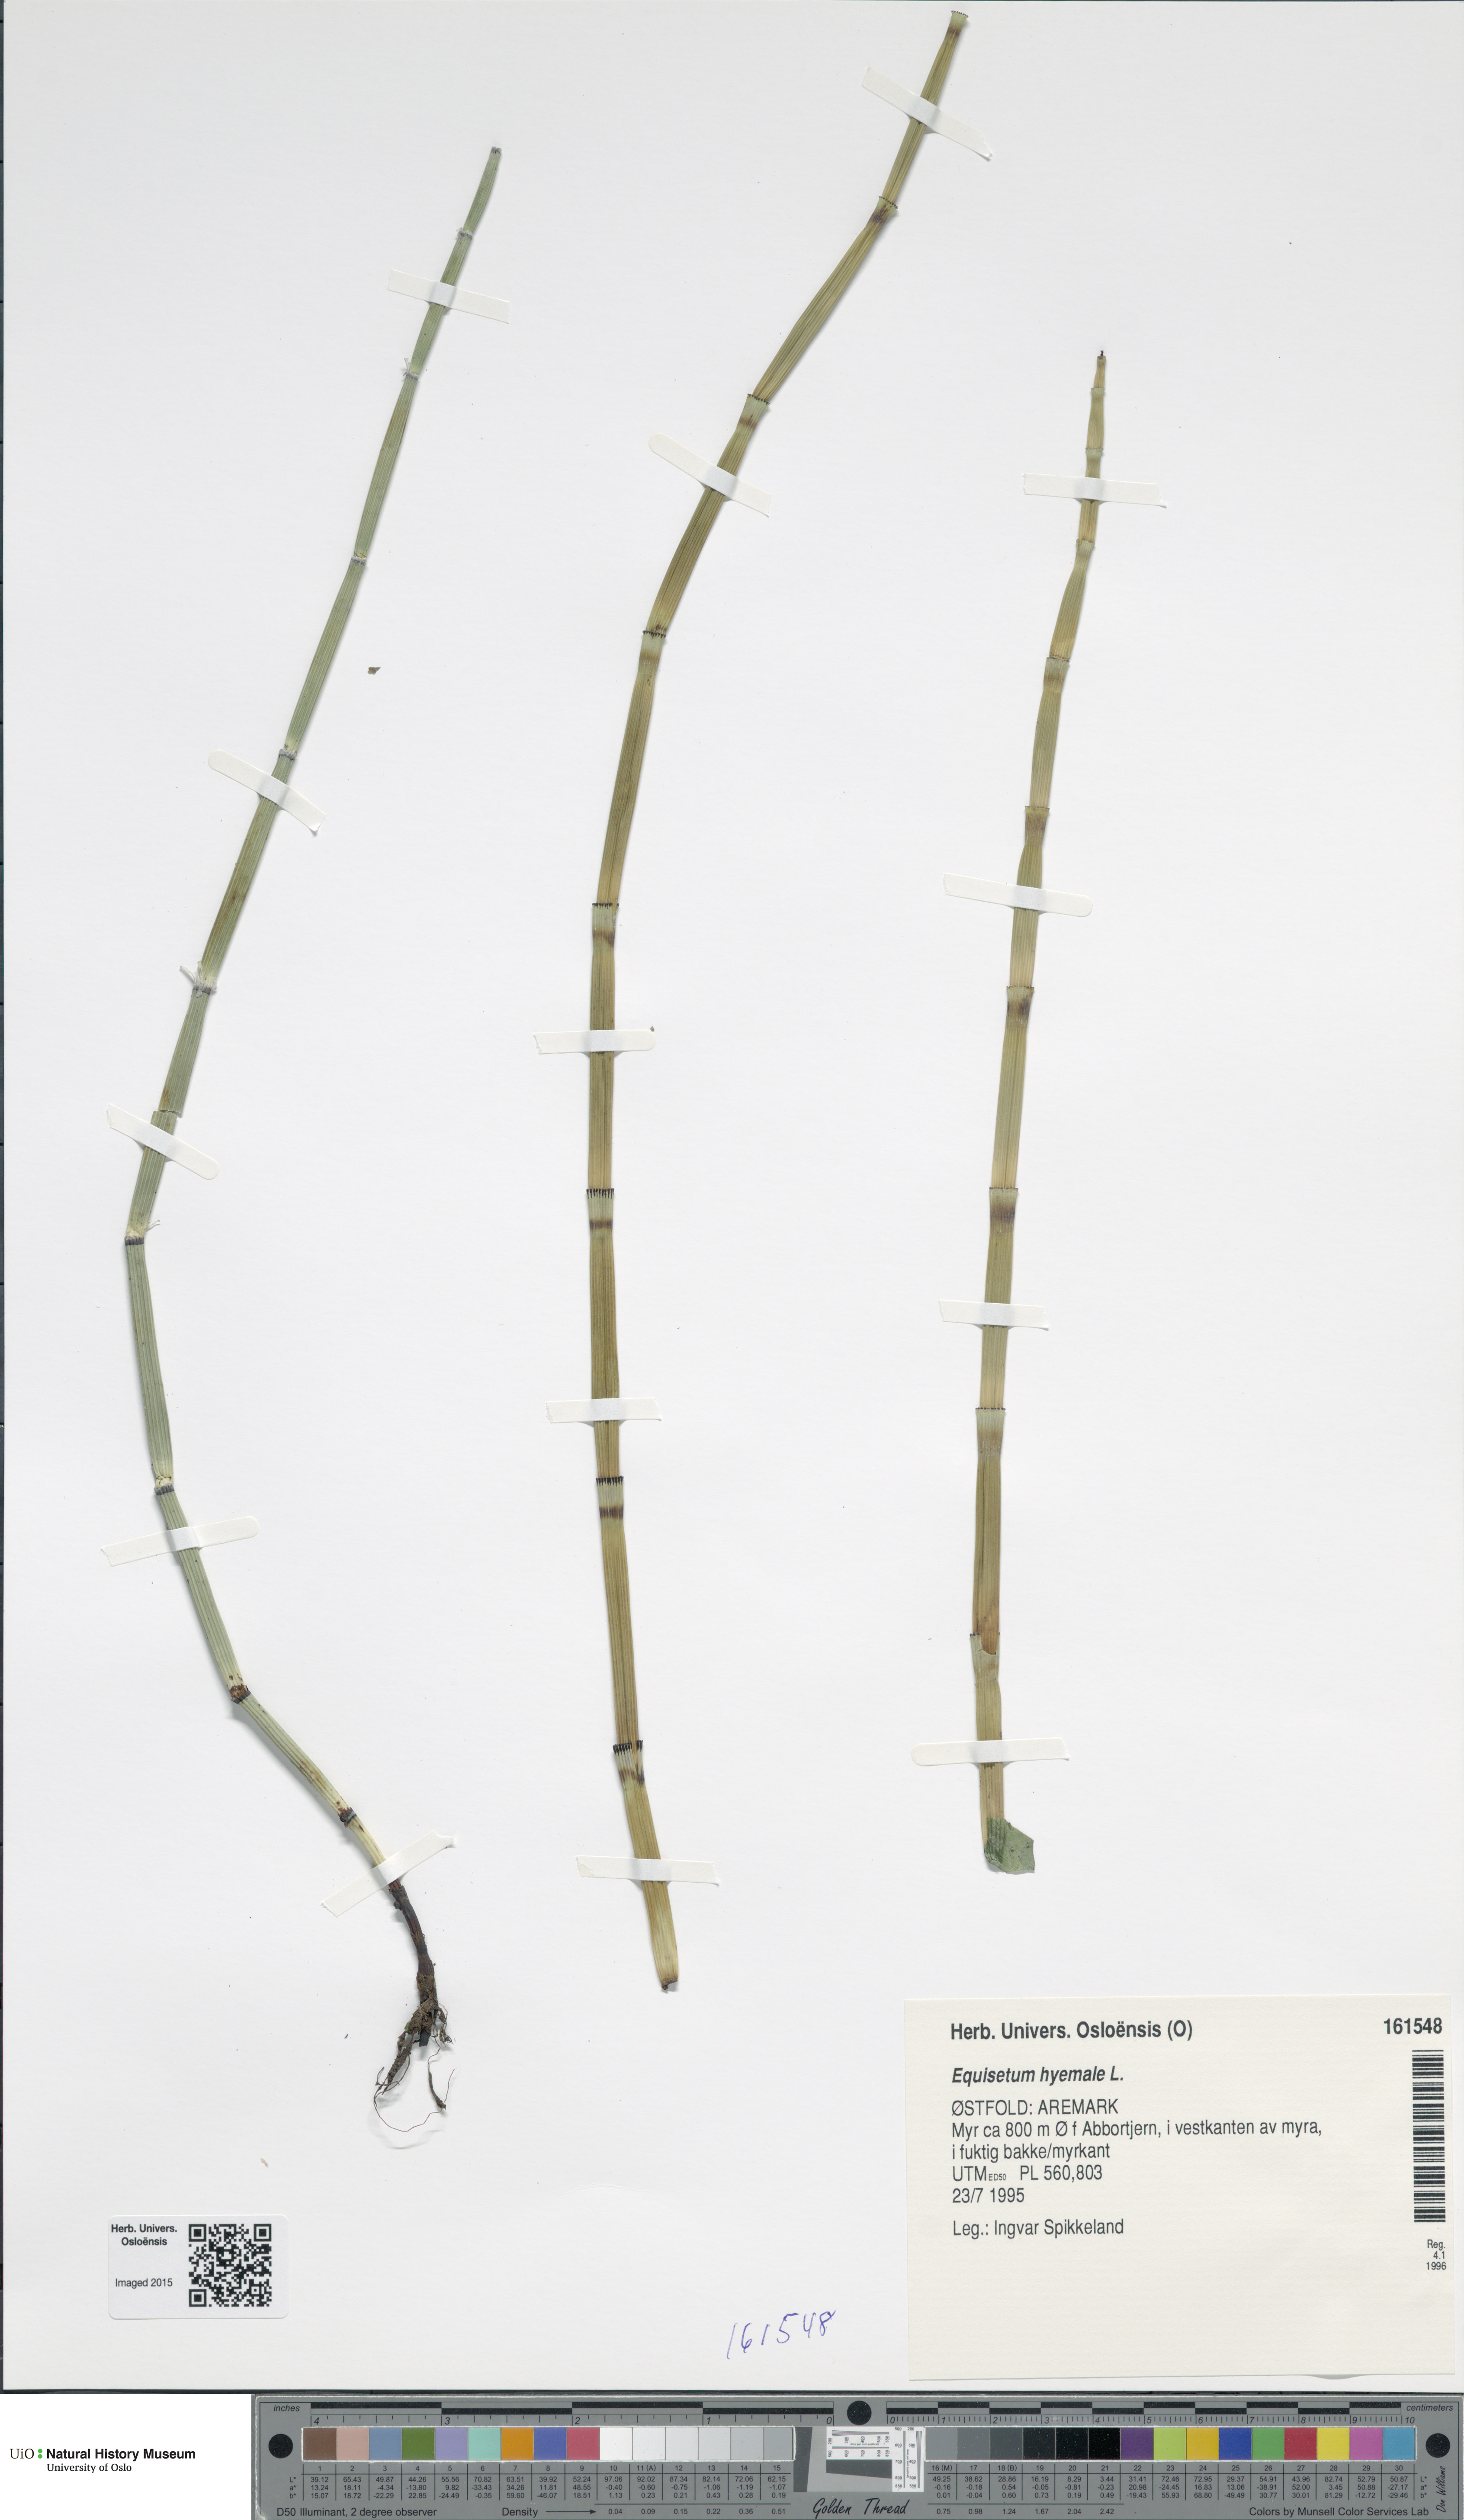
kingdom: Plantae
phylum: Tracheophyta
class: Polypodiopsida
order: Equisetales
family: Equisetaceae
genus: Equisetum
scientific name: Equisetum hyemale
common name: Rough horsetail
